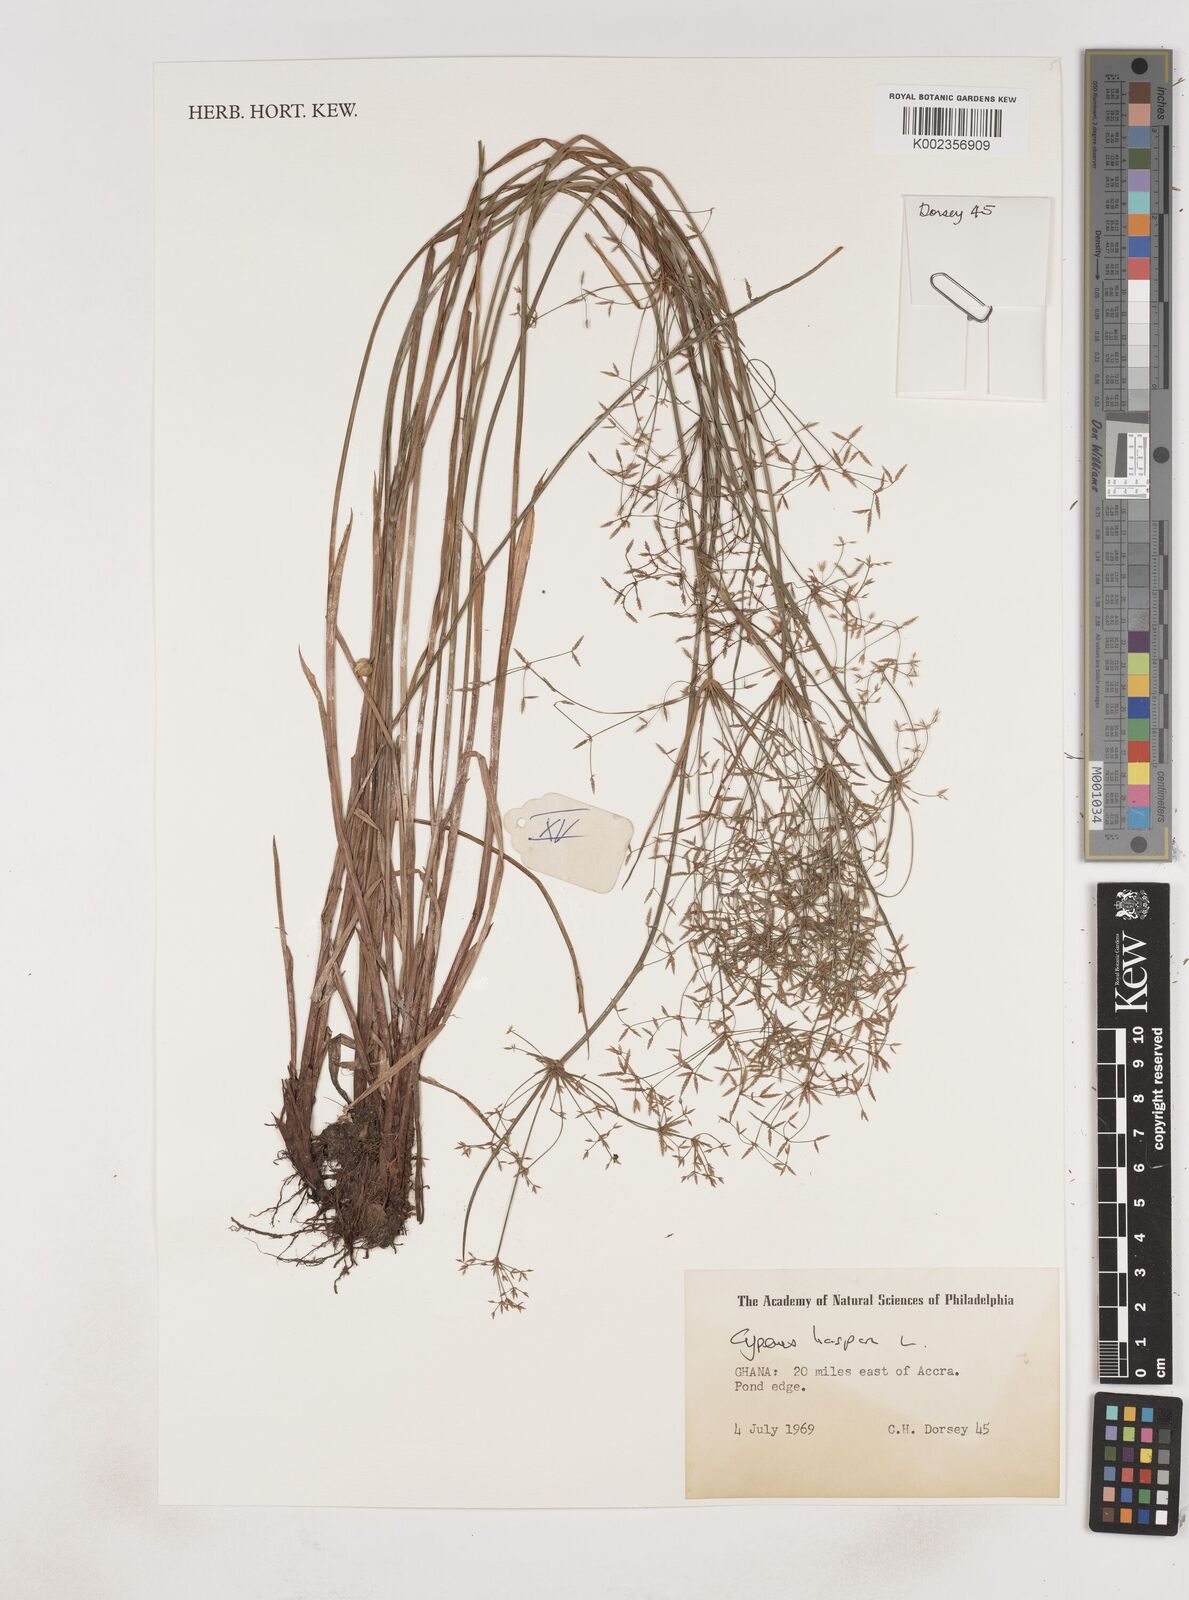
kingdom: Plantae
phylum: Tracheophyta
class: Liliopsida
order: Poales
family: Cyperaceae
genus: Cyperus
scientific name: Cyperus haspan
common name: Haspan flatsedge
